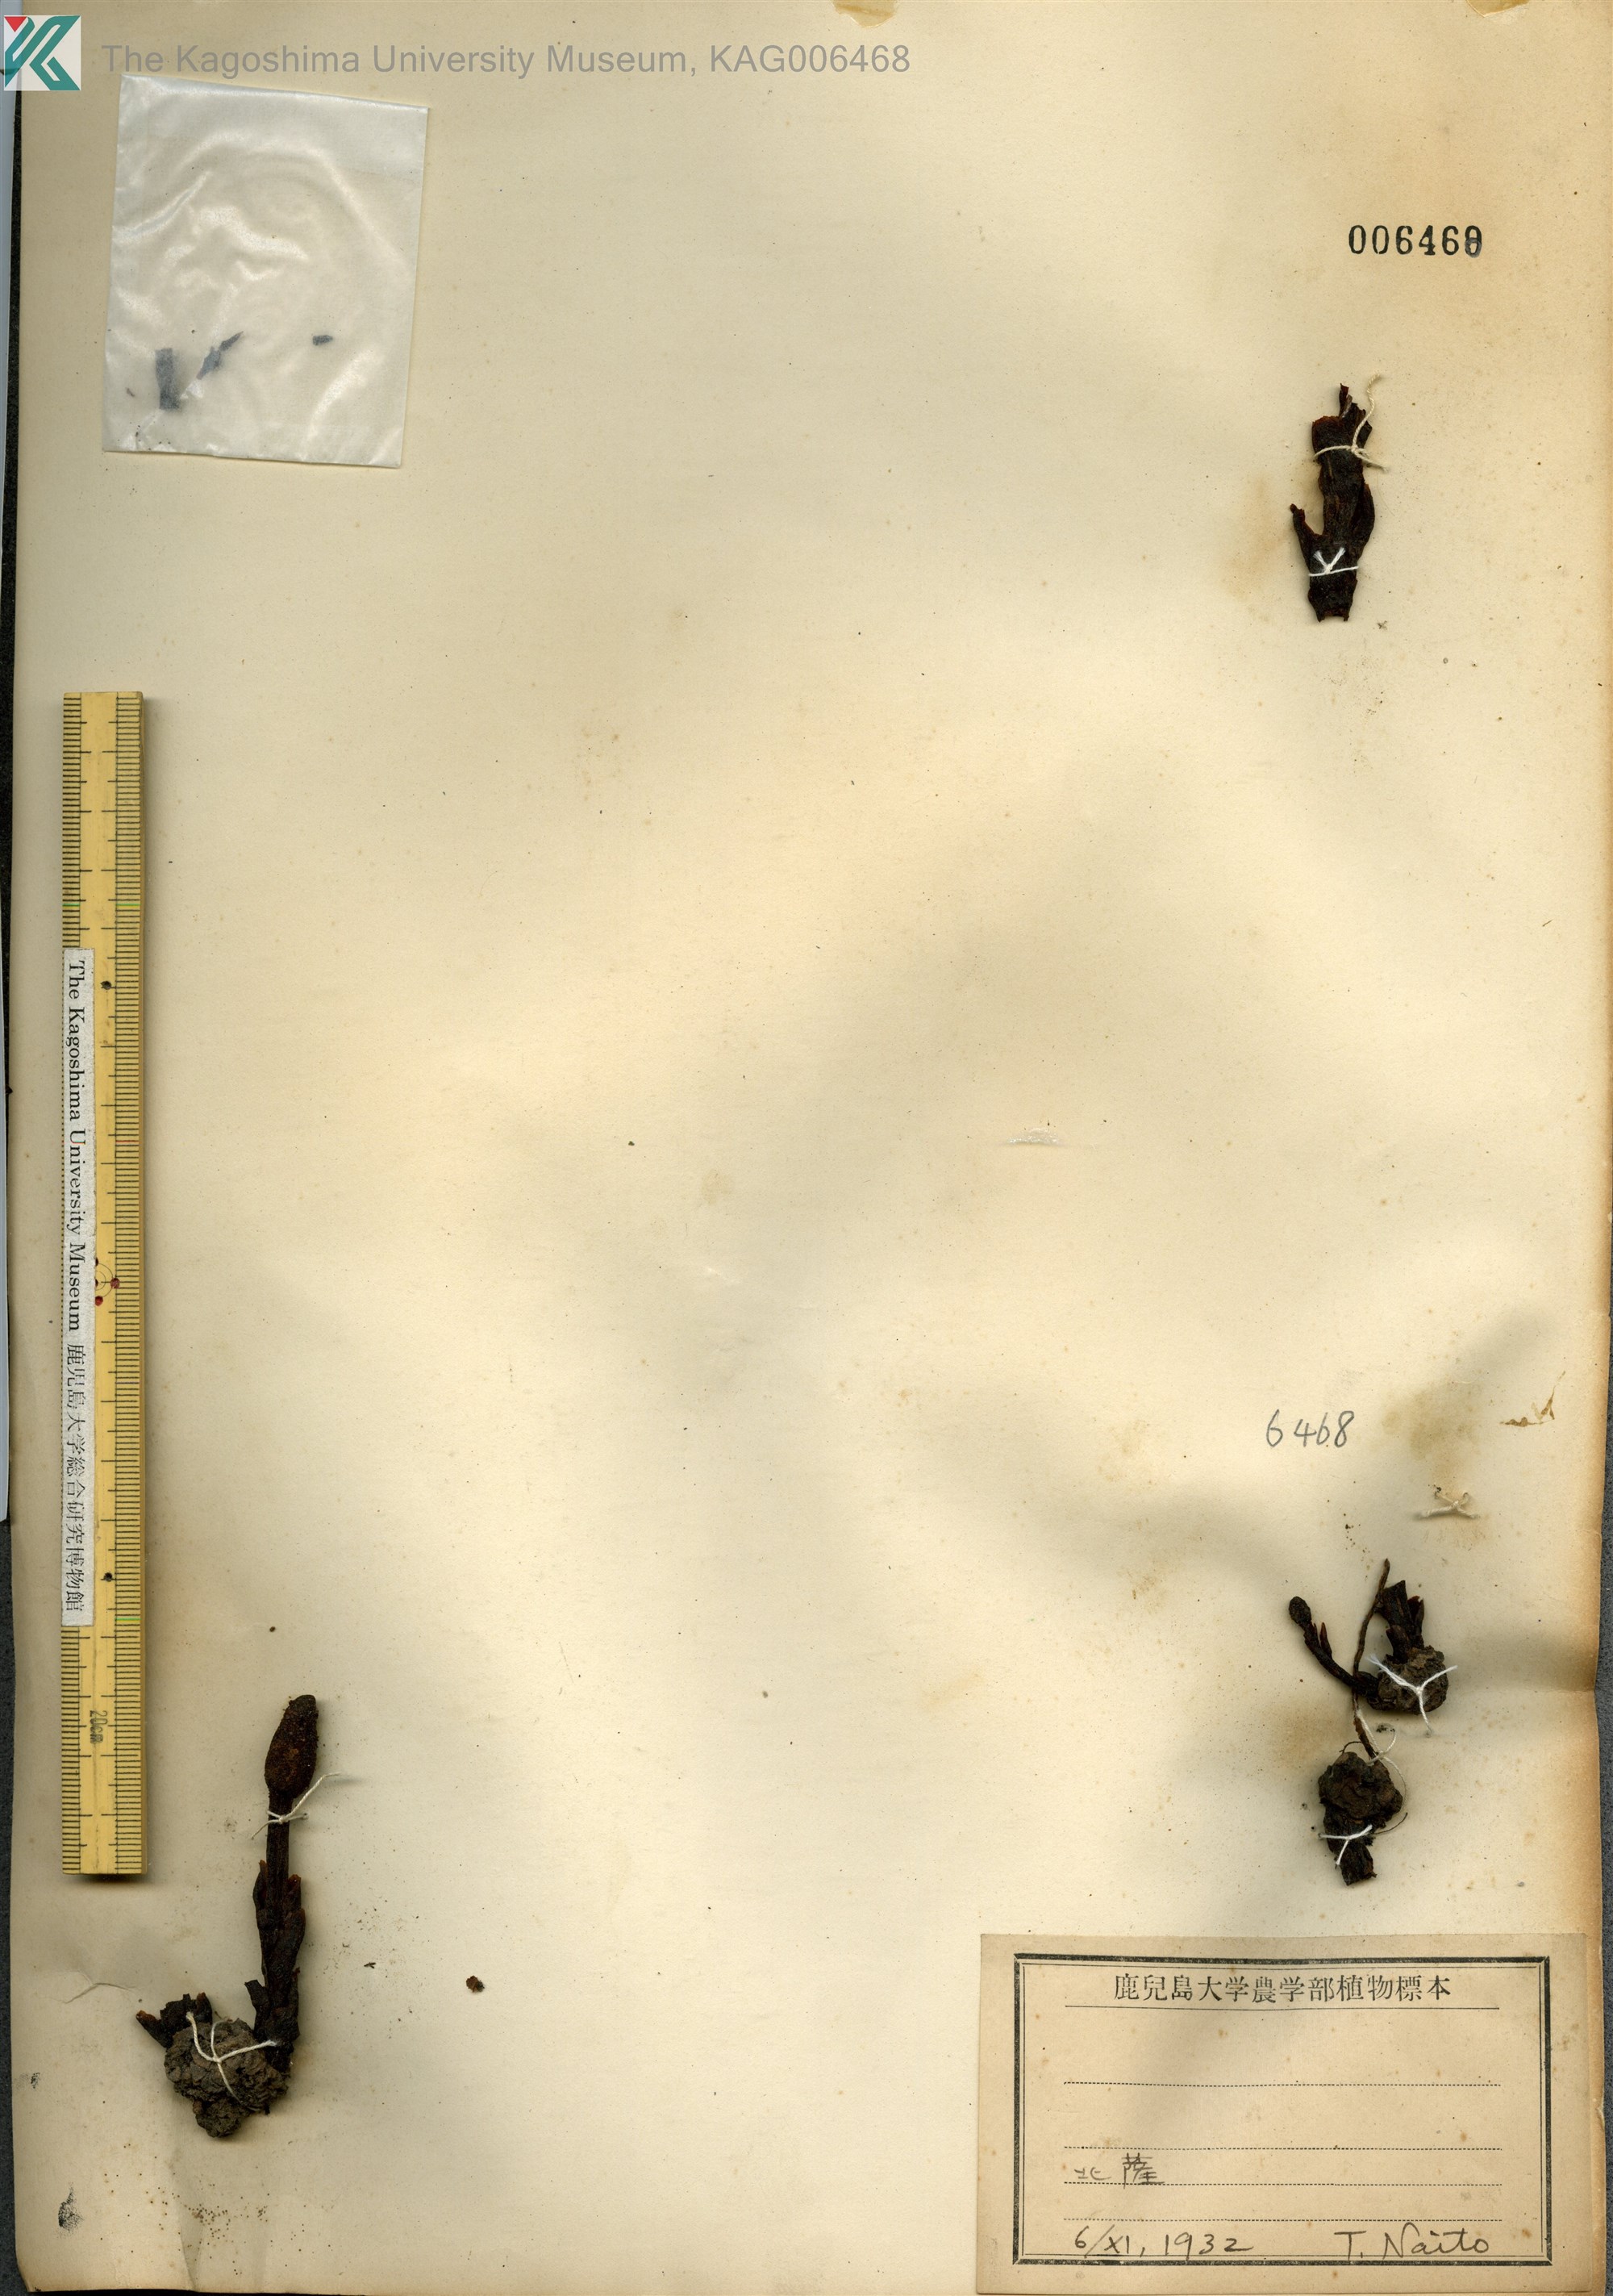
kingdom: Plantae
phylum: Tracheophyta
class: Magnoliopsida
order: Santalales
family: Balanophoraceae
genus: Balanophora
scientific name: Balanophora tobiracola
